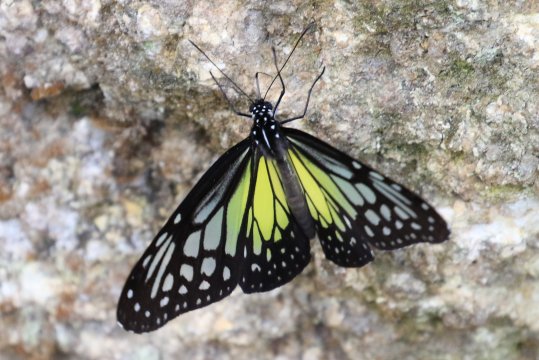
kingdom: Animalia
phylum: Arthropoda
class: Insecta
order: Lepidoptera
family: Nymphalidae
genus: Parantica
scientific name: Parantica aspasia
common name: Yellow Glassy Tiger
